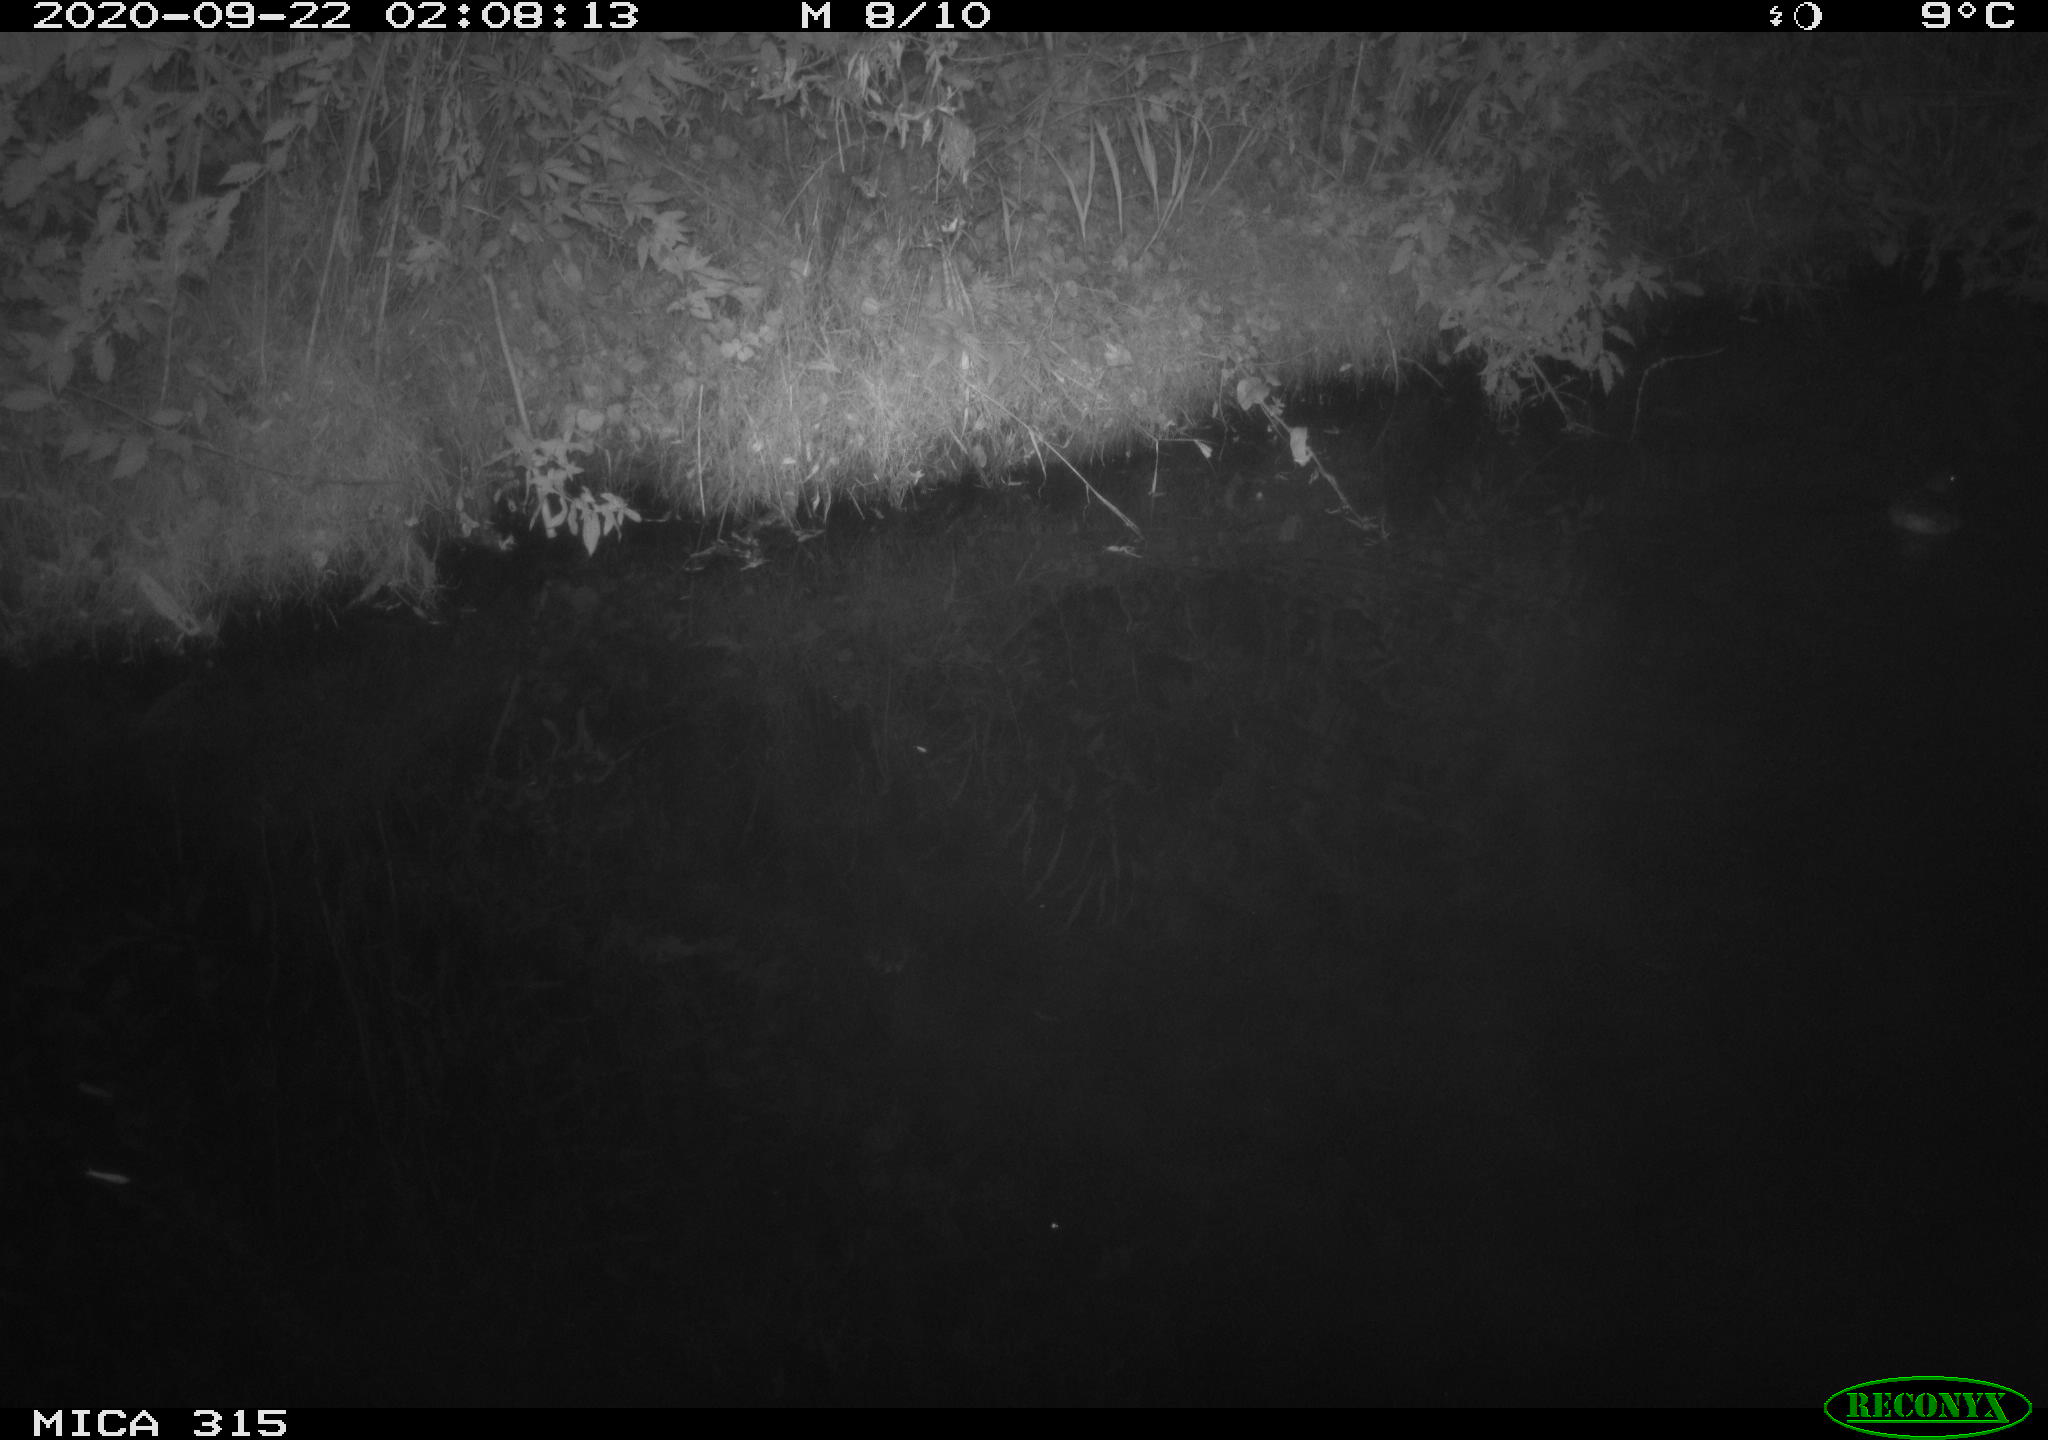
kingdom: Animalia
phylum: Chordata
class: Aves
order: Anseriformes
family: Anatidae
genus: Anas
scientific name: Anas platyrhynchos
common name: Mallard
